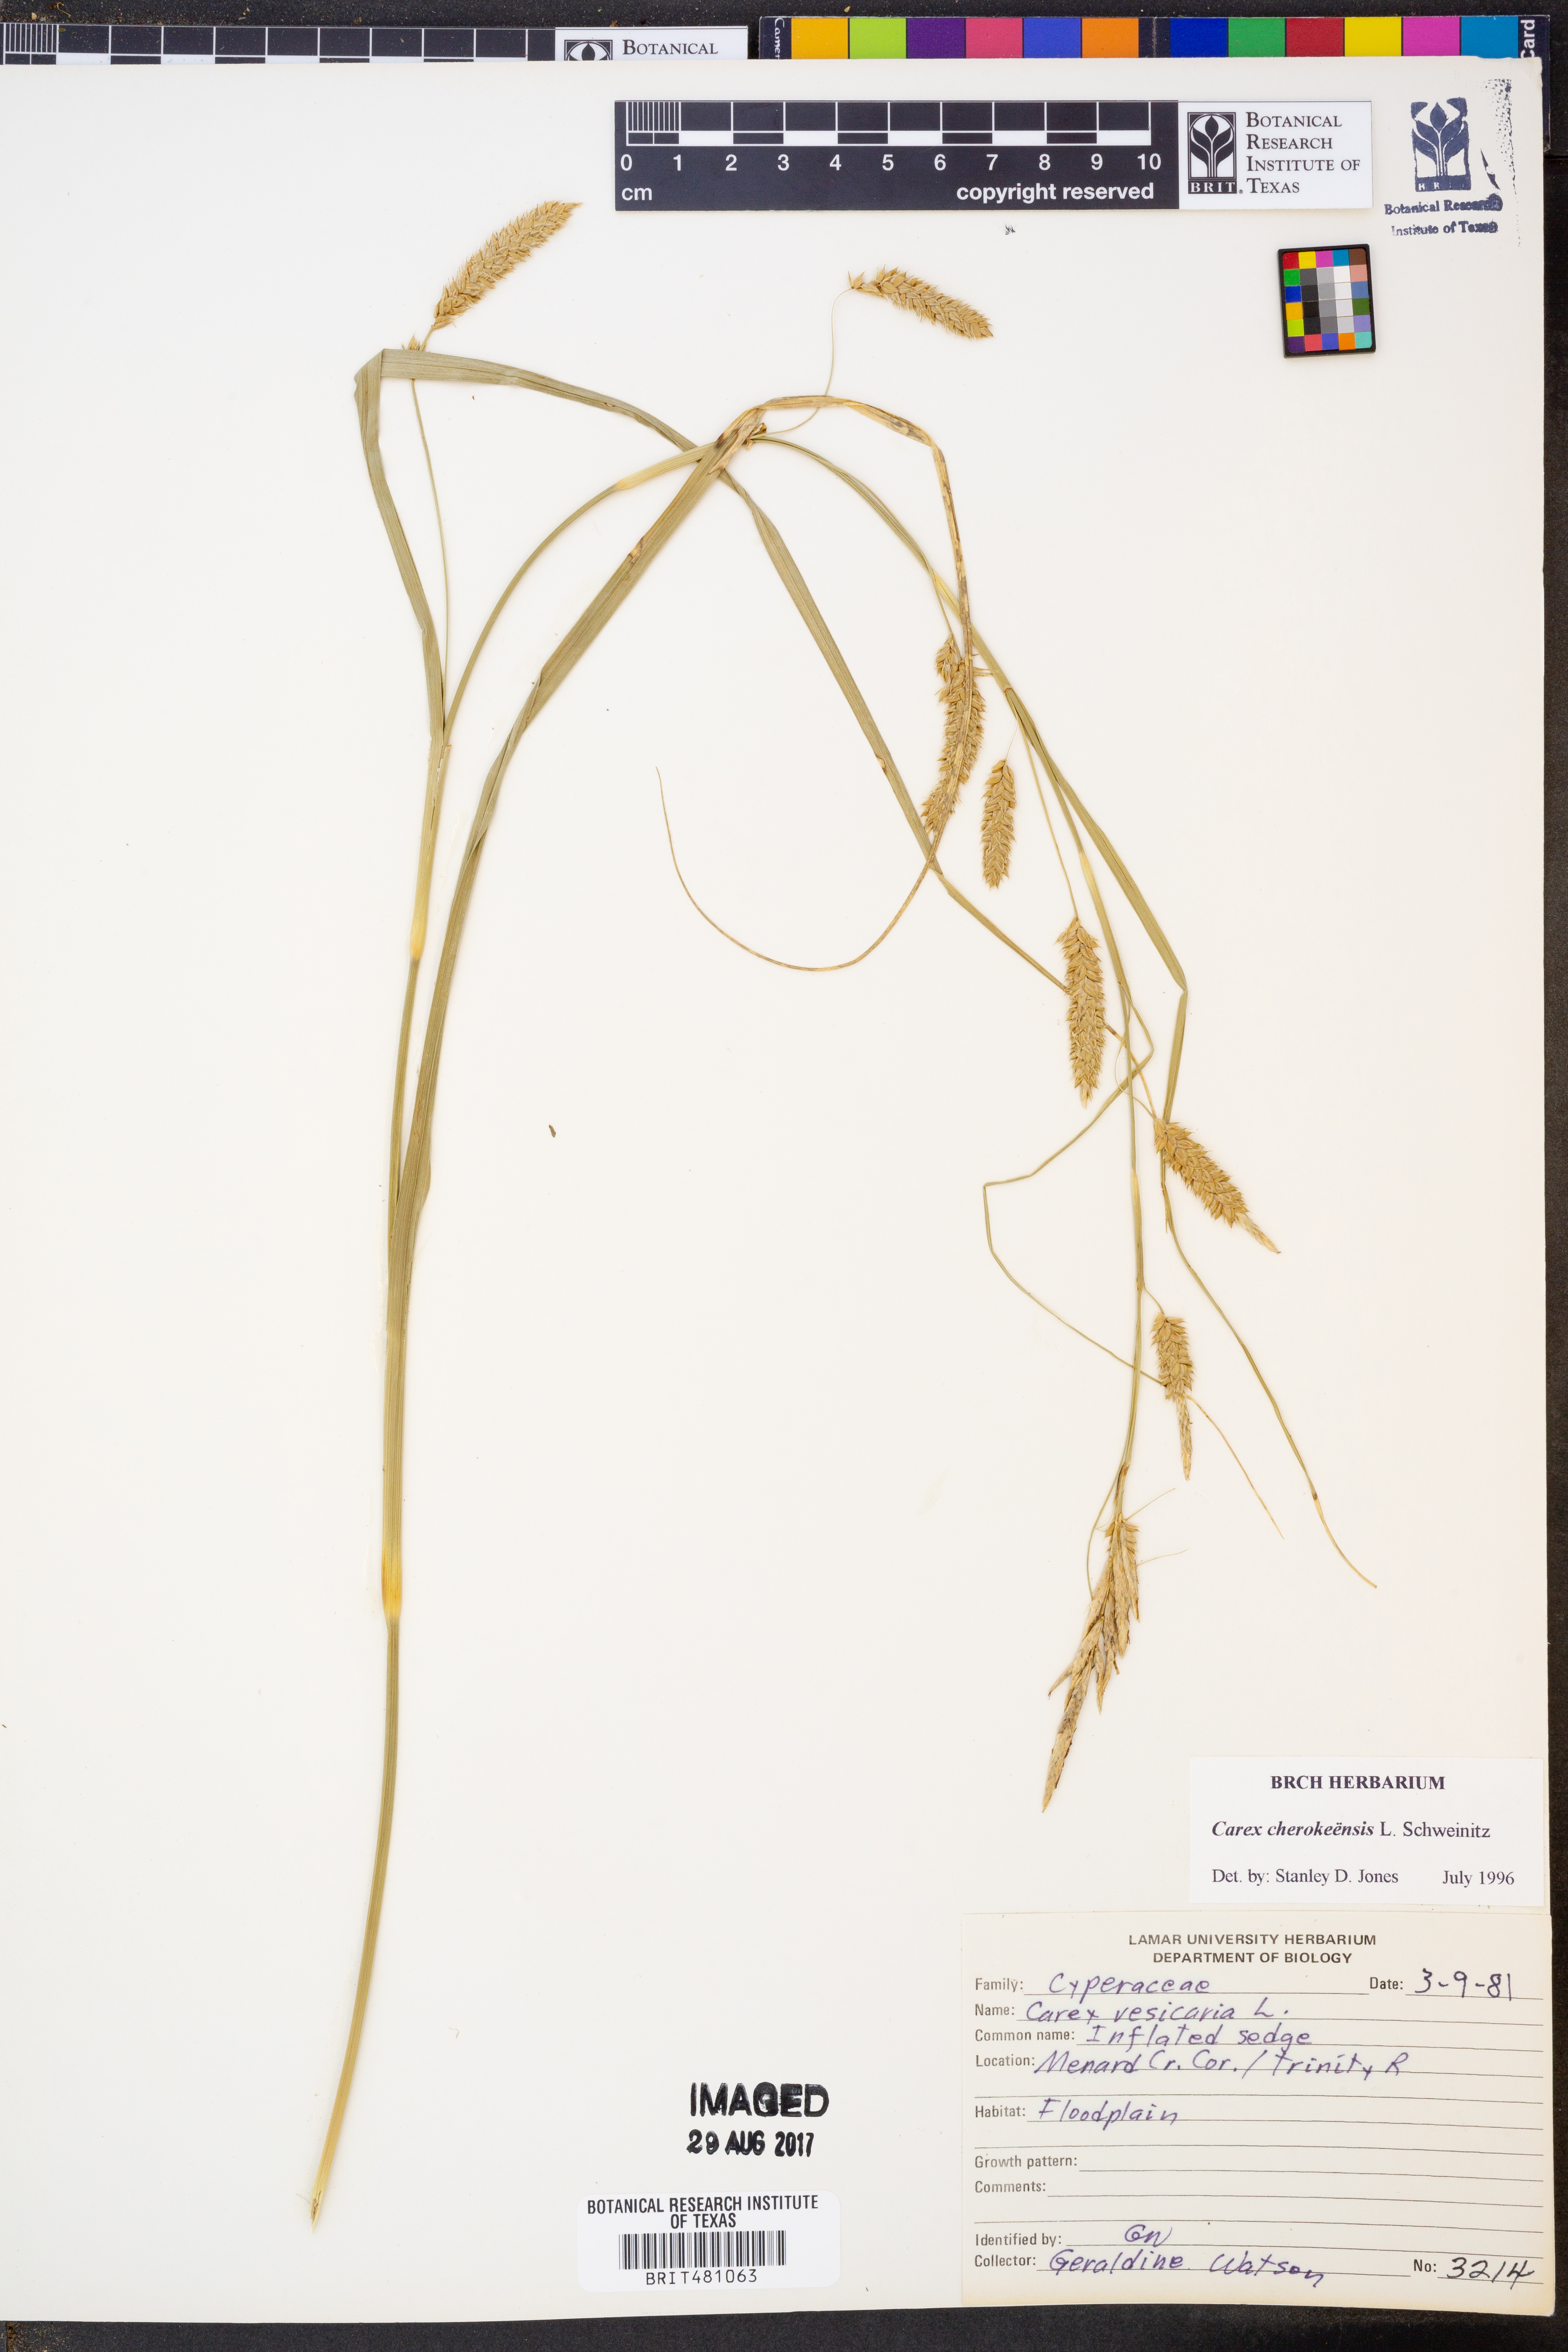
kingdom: Plantae
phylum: Tracheophyta
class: Liliopsida
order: Poales
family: Cyperaceae
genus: Carex
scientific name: Carex cherokeensis
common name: Cherokee sedge
